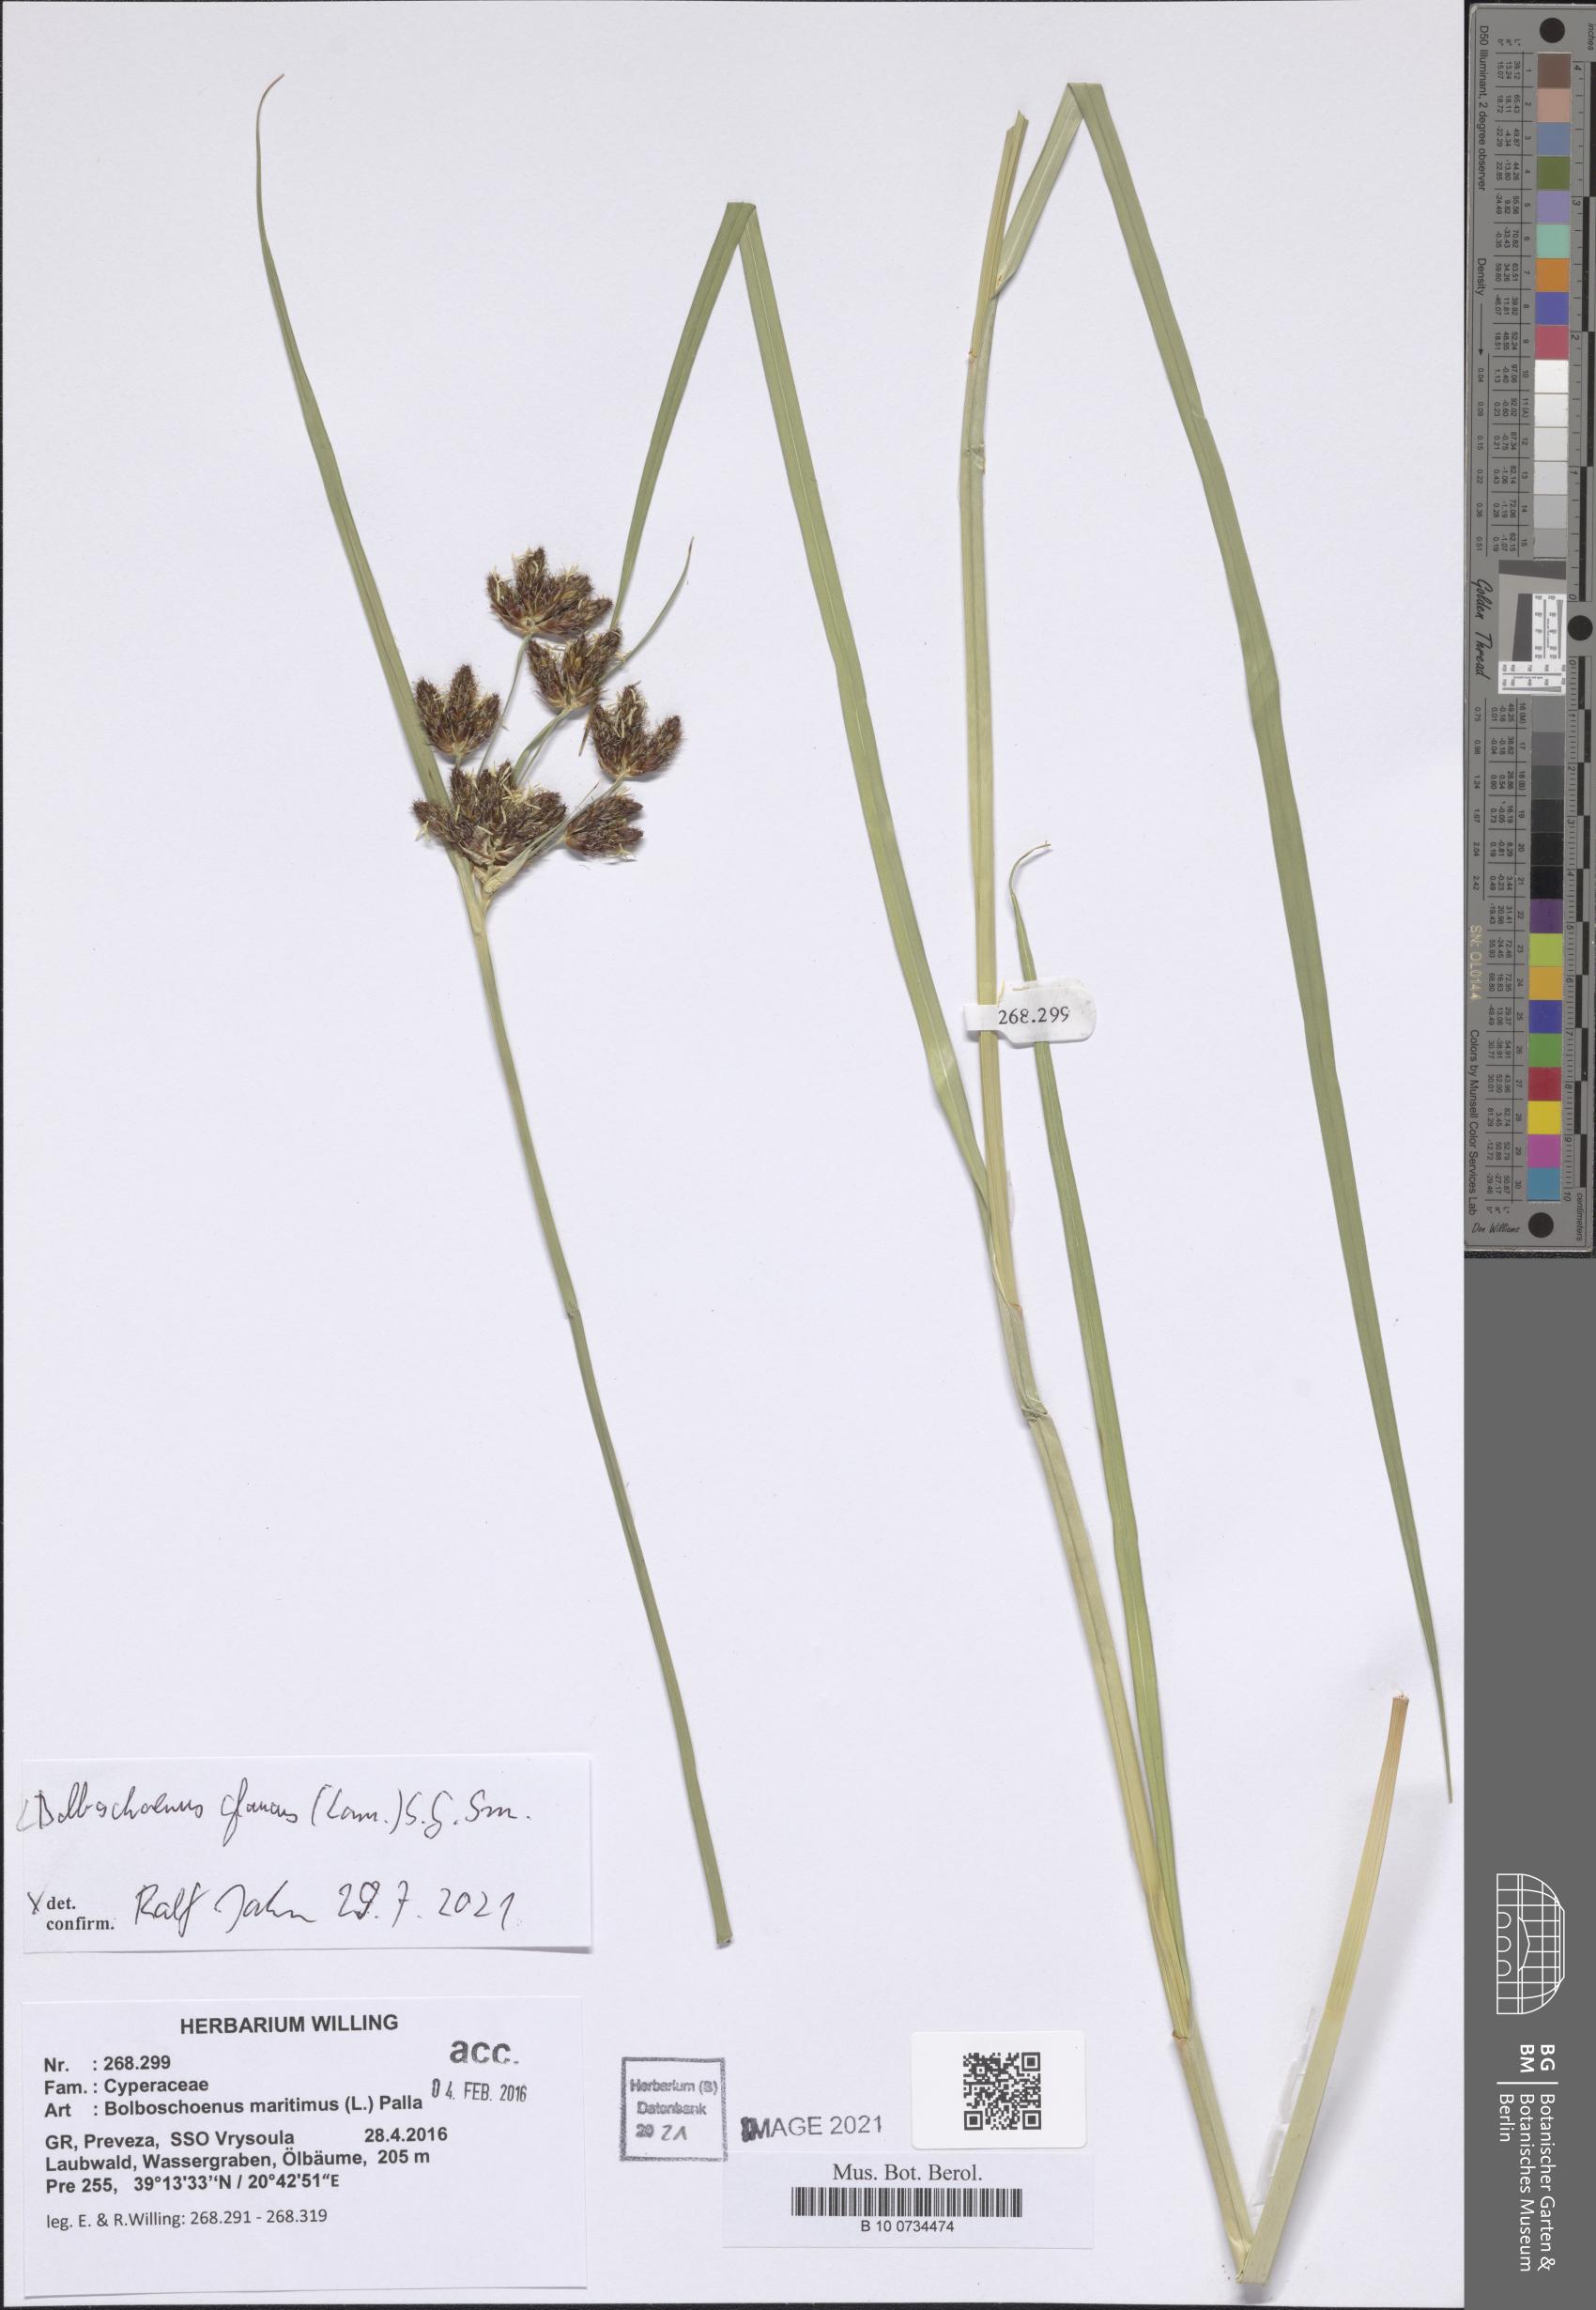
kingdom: Plantae
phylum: Tracheophyta
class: Liliopsida
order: Poales
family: Cyperaceae
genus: Bolboschoenus
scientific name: Bolboschoenus glaucus
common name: Tuberous bulrush
